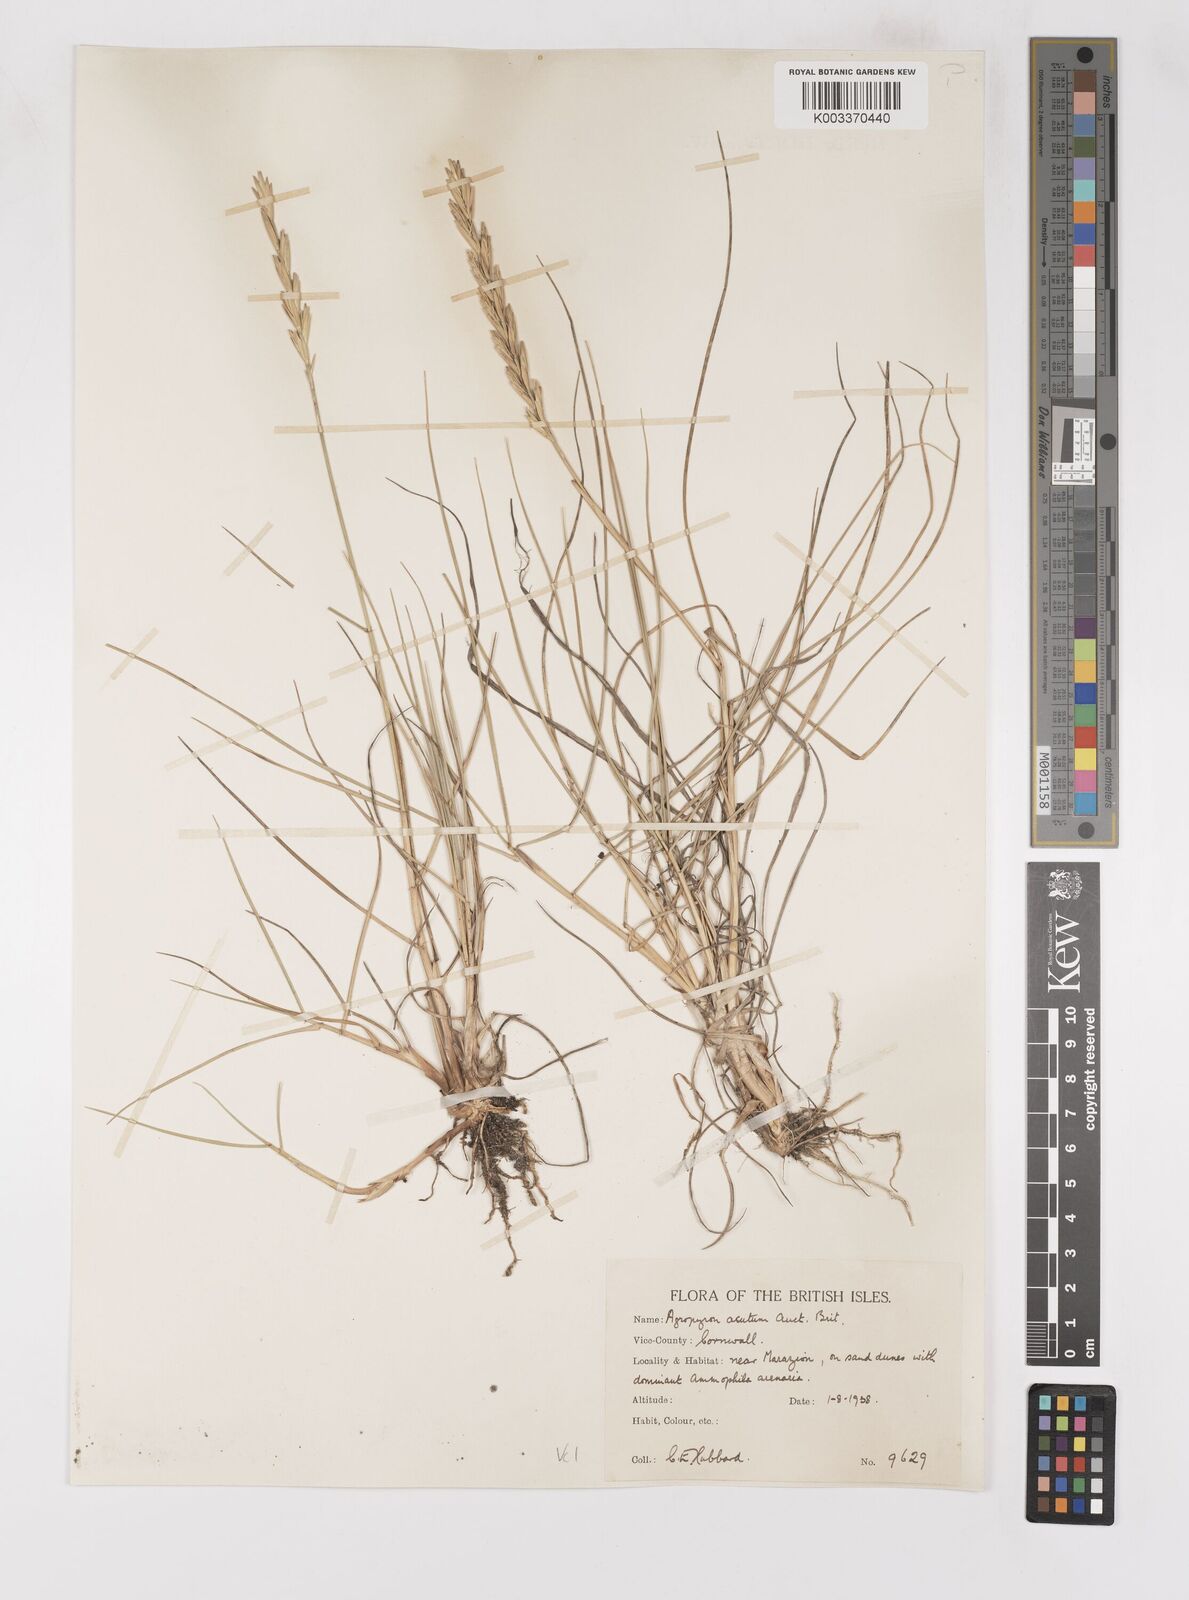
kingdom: Plantae
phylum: Tracheophyta
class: Liliopsida
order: Poales
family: Poaceae
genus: Thinoelymus
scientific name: Thinoelymus obtusiusculus
